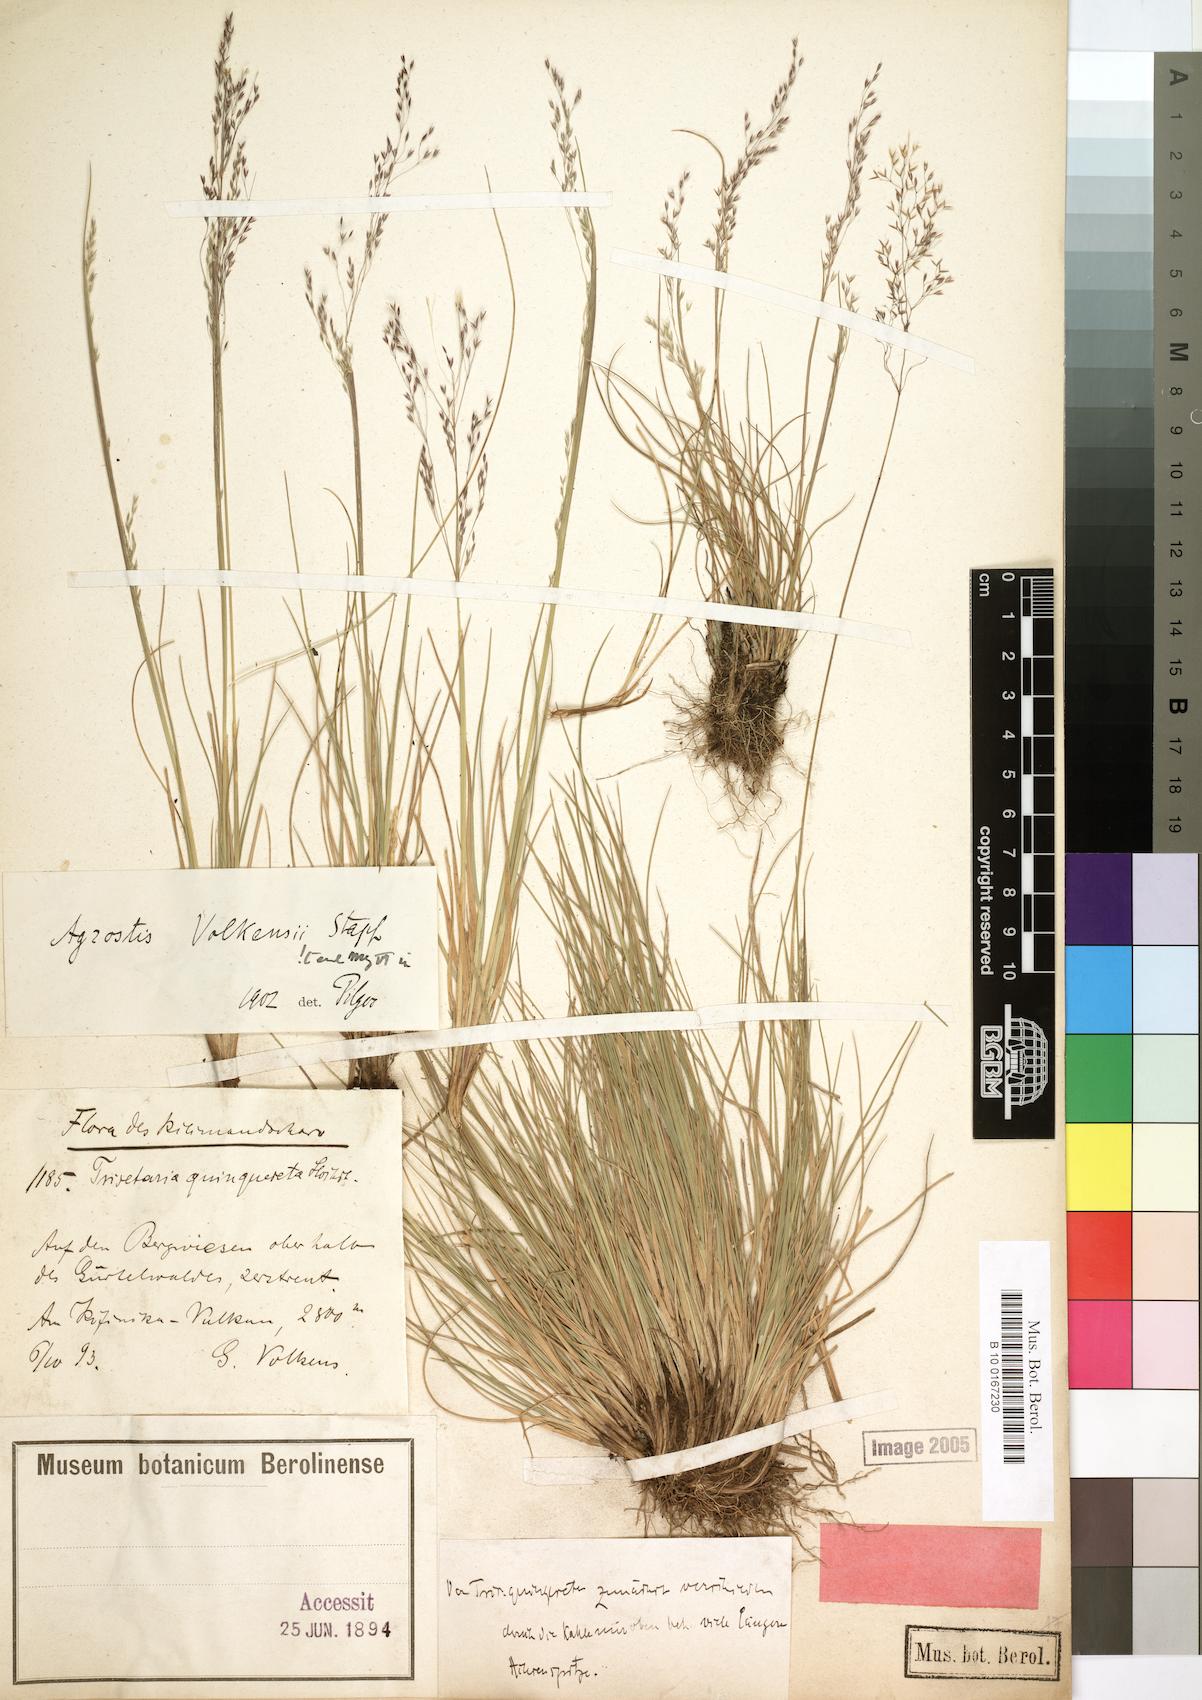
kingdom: Plantae
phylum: Tracheophyta
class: Liliopsida
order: Poales
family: Poaceae
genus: Agrostis
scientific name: Agrostis volkensii
